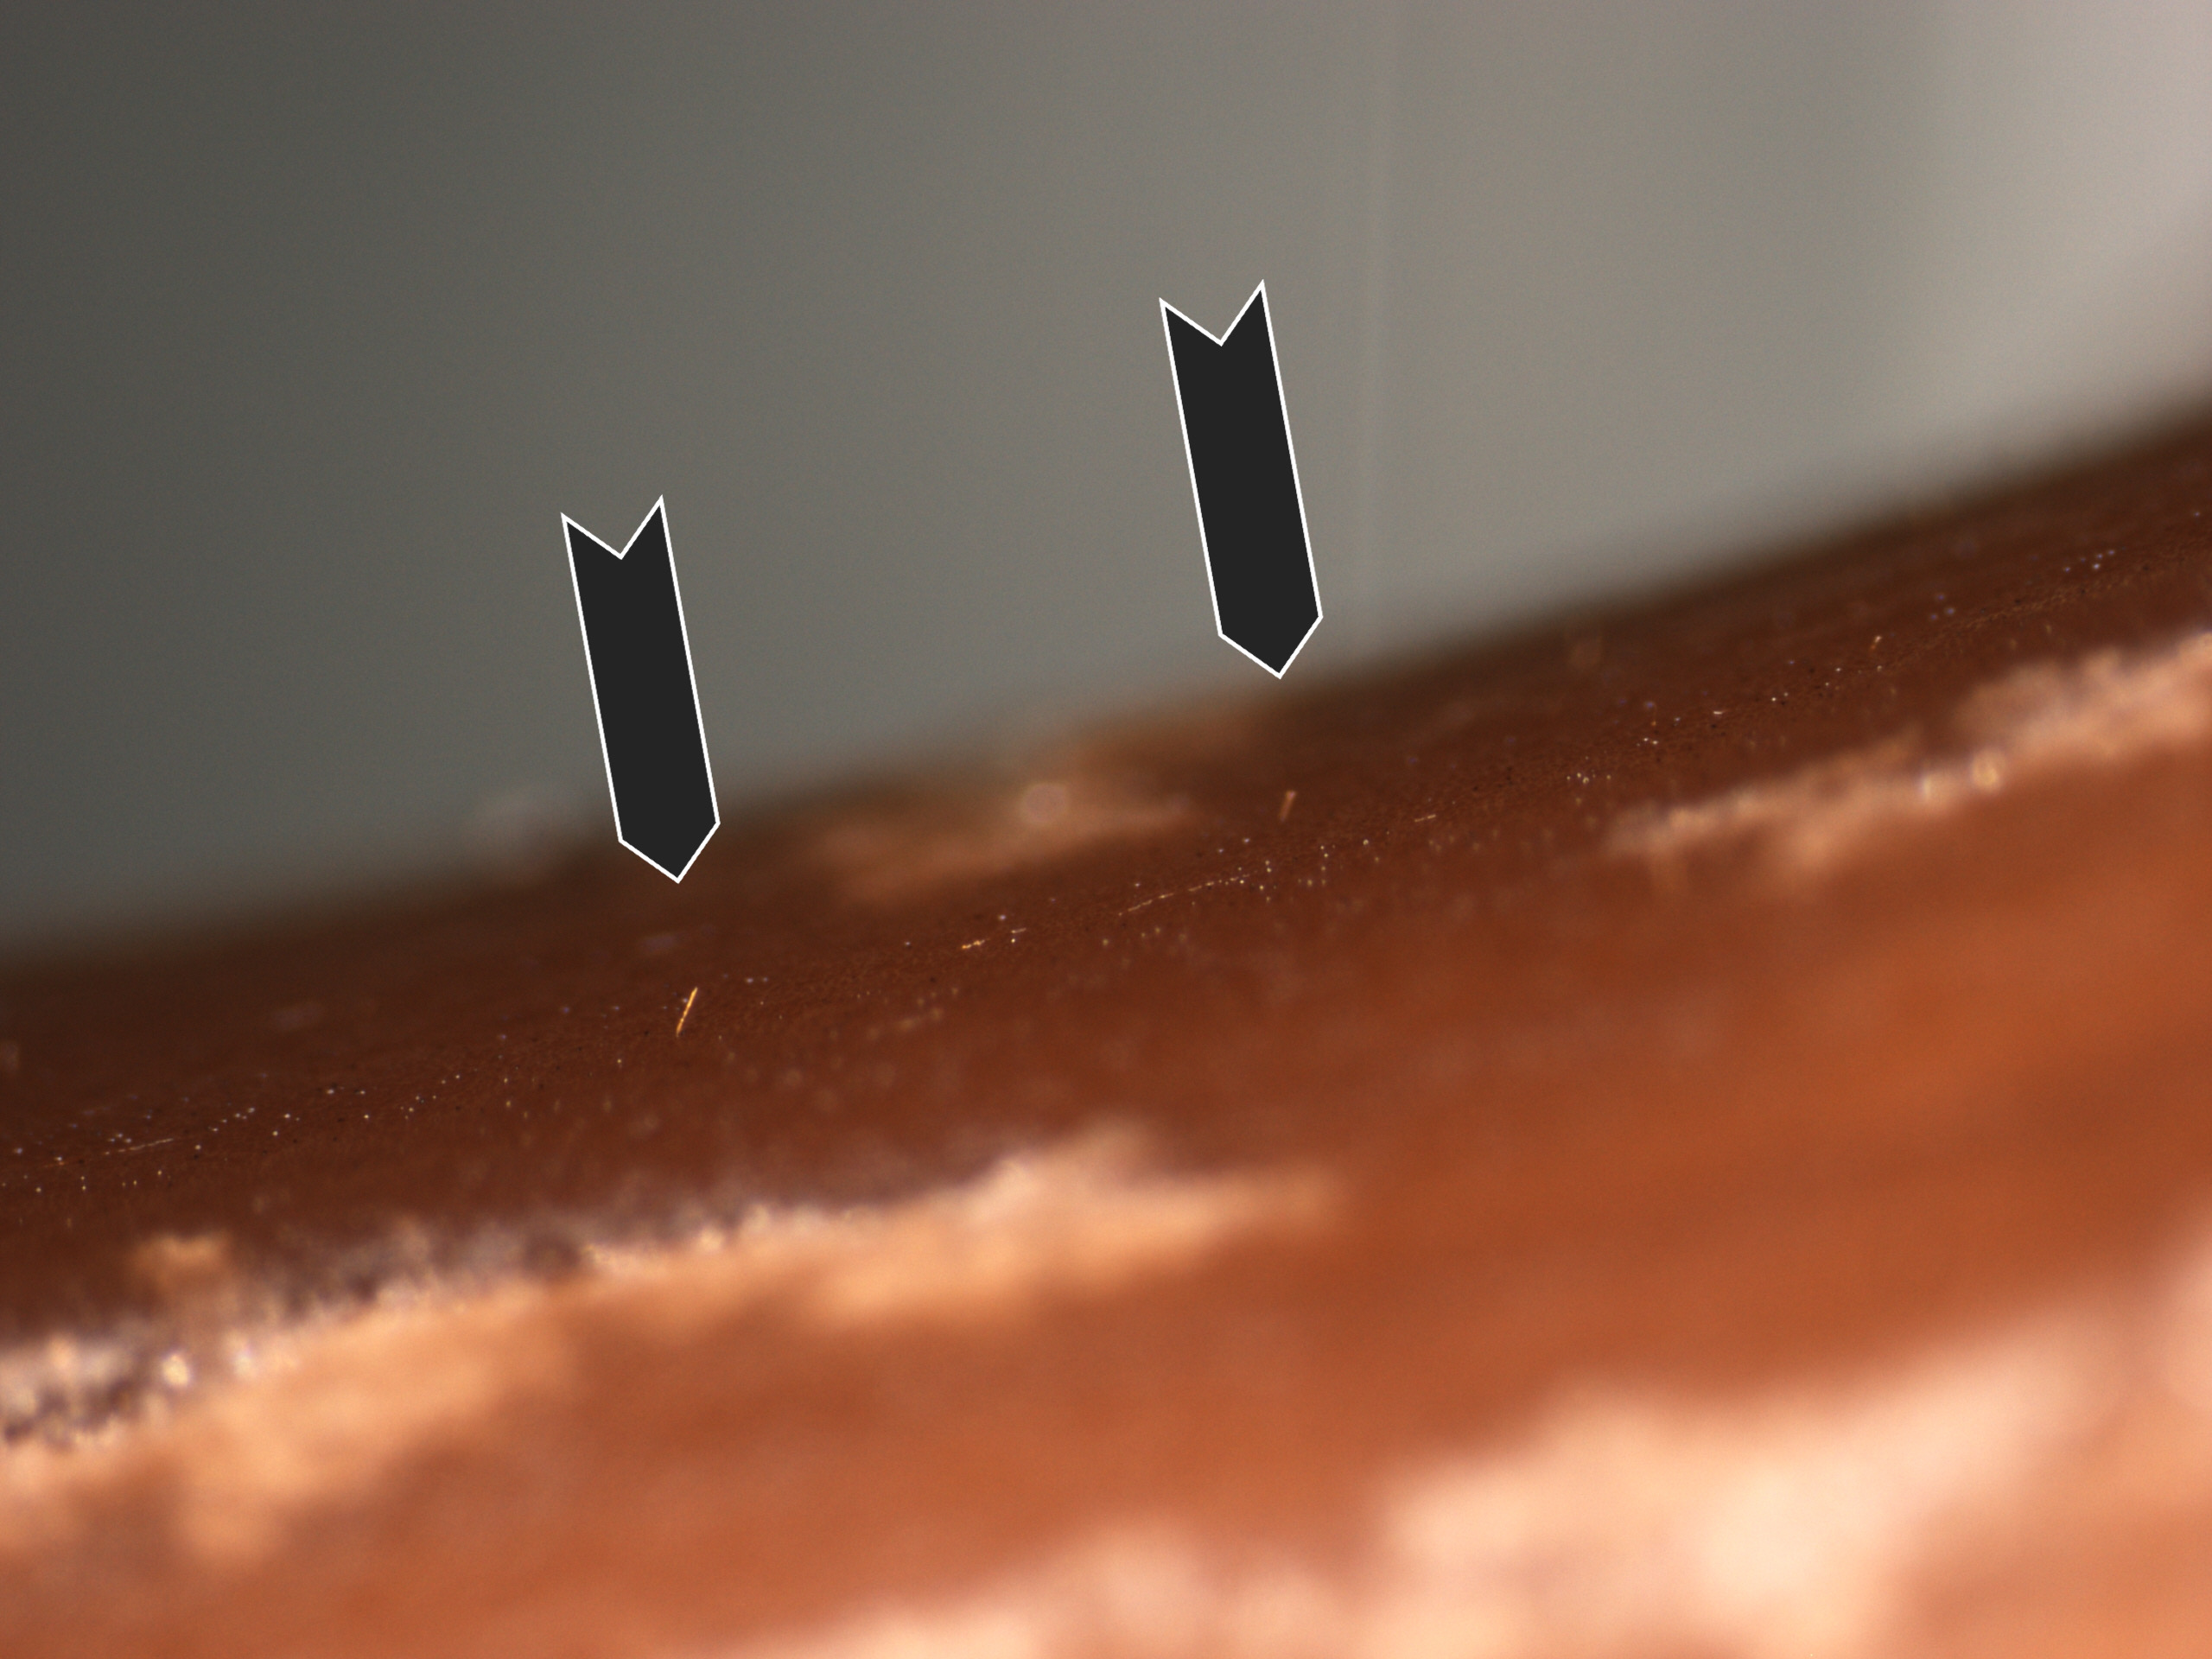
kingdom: Fungi
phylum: Basidiomycota
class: Agaricomycetes
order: Agaricales
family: Psathyrellaceae
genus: Parasola
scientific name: Parasola conopilea
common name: kegle-hjulhat
